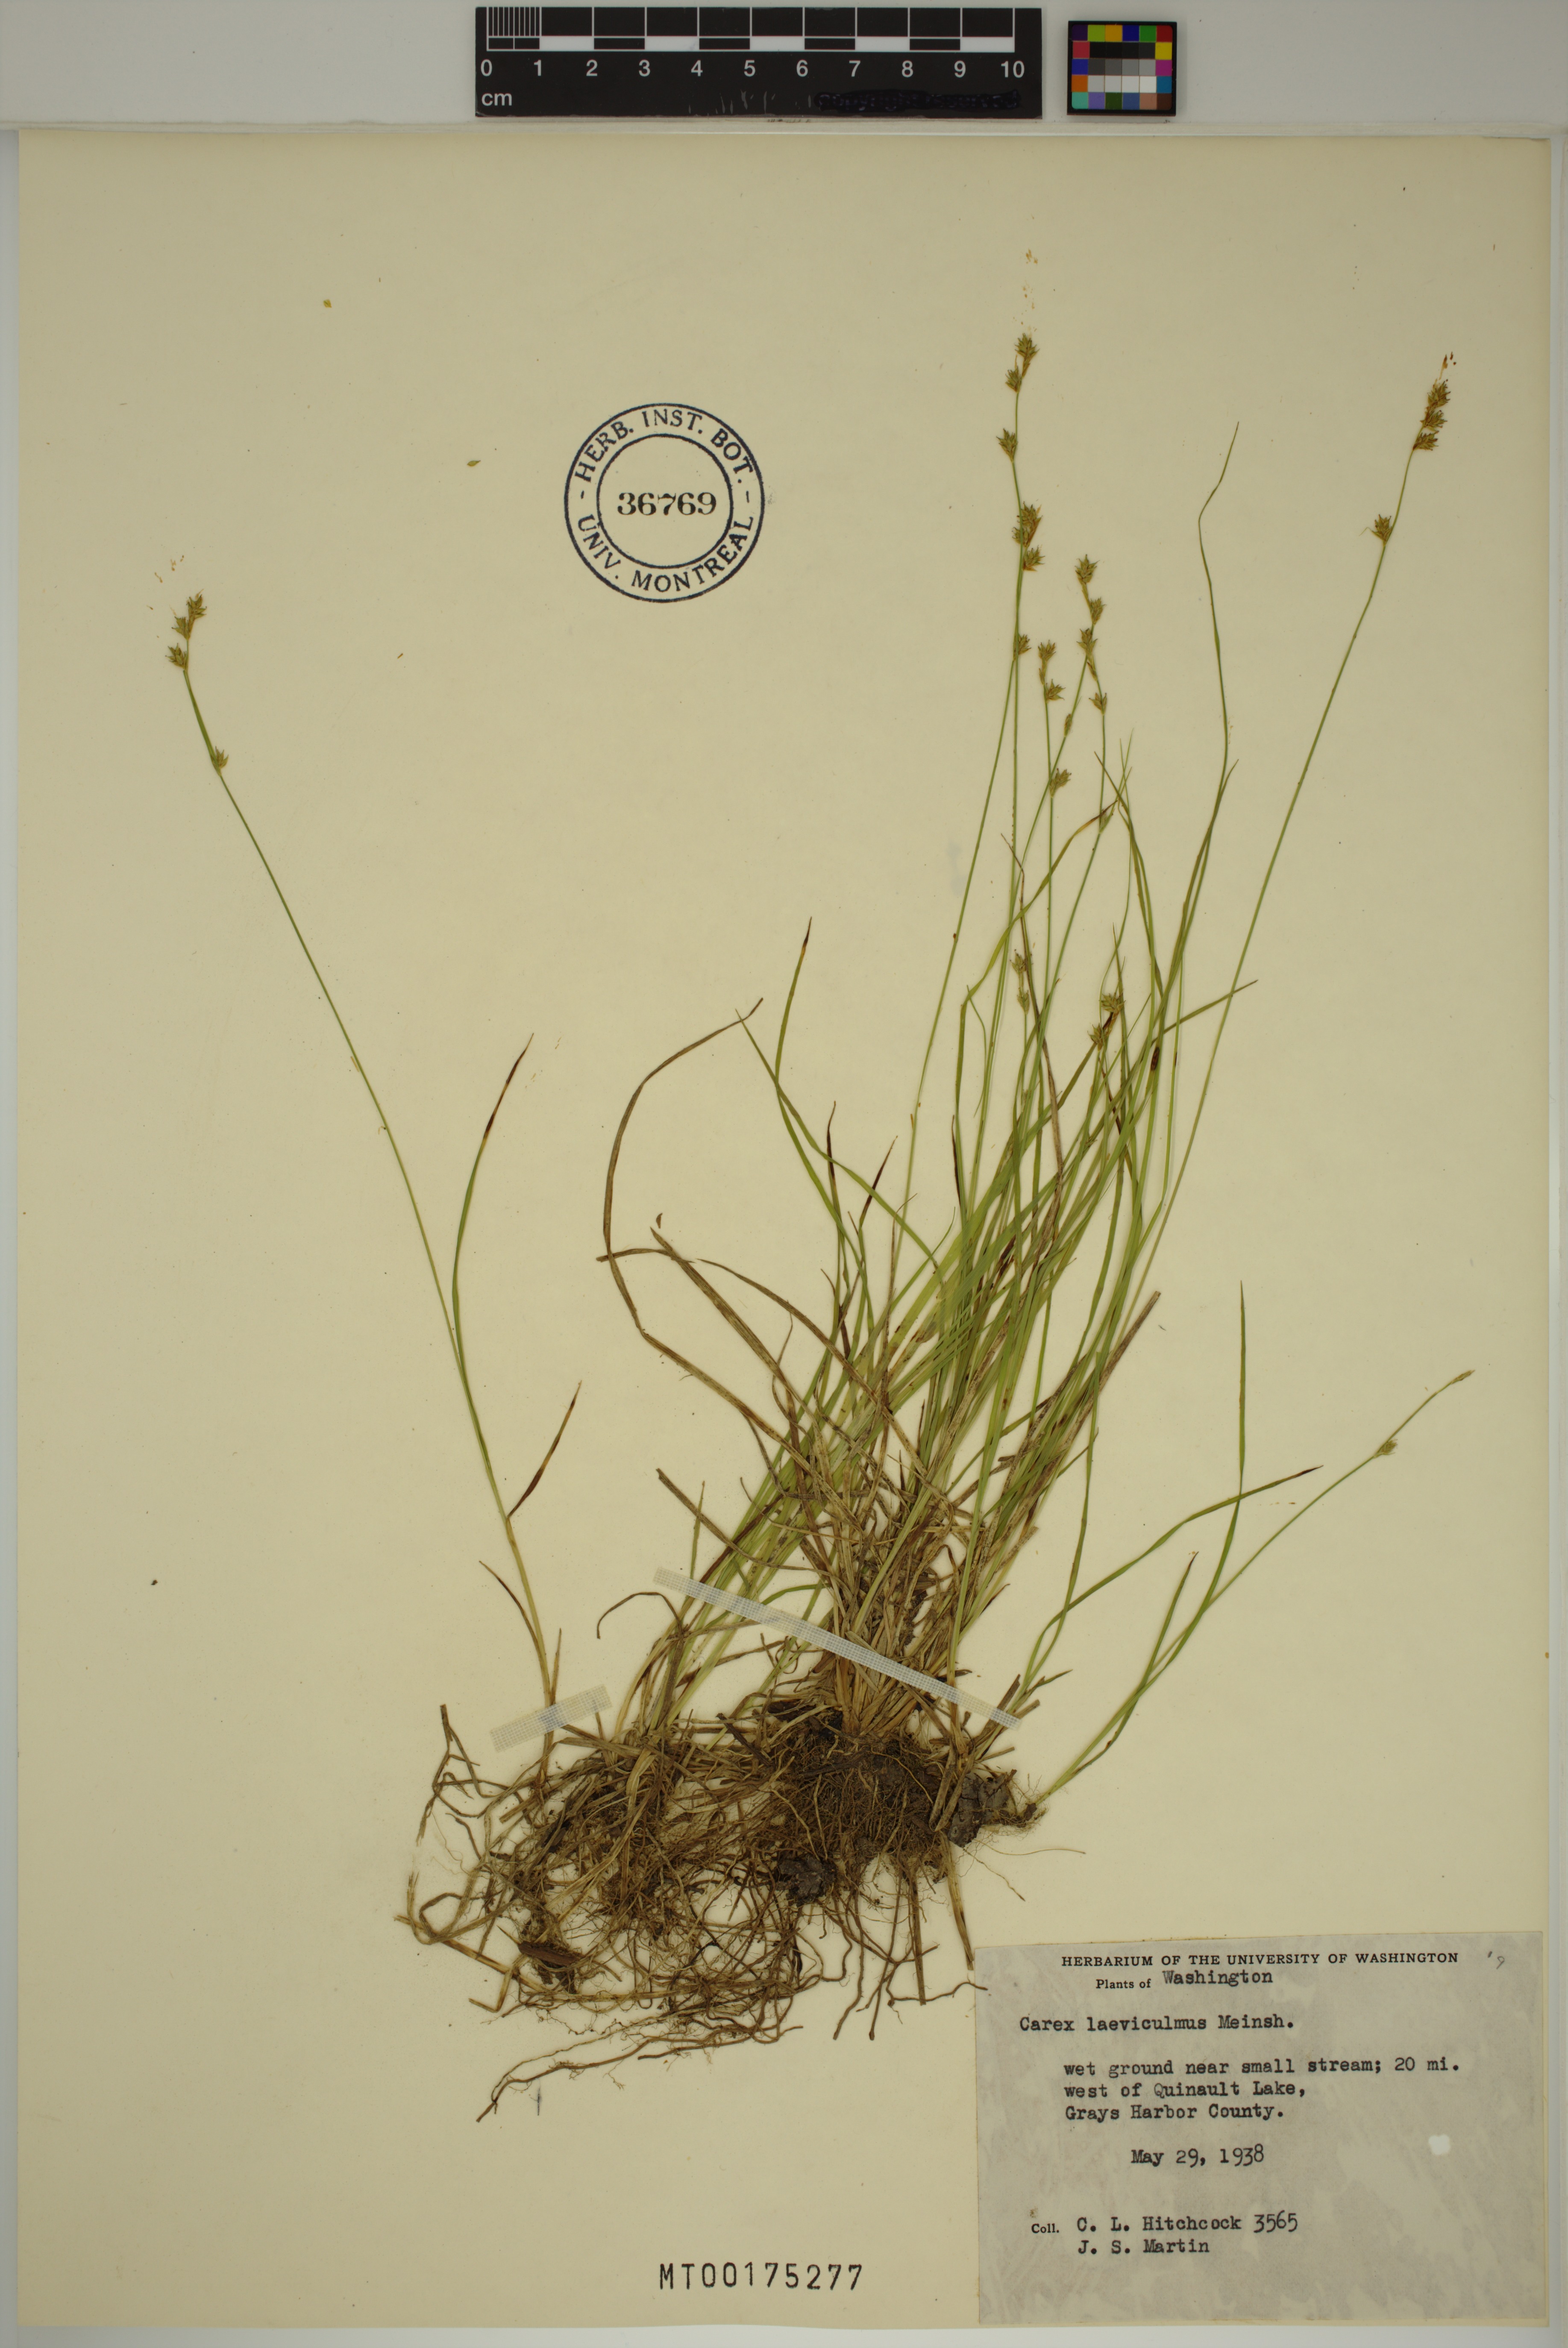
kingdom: Plantae
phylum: Tracheophyta
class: Liliopsida
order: Poales
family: Cyperaceae
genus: Carex
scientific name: Carex laeviculmis
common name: Smooth sedge
